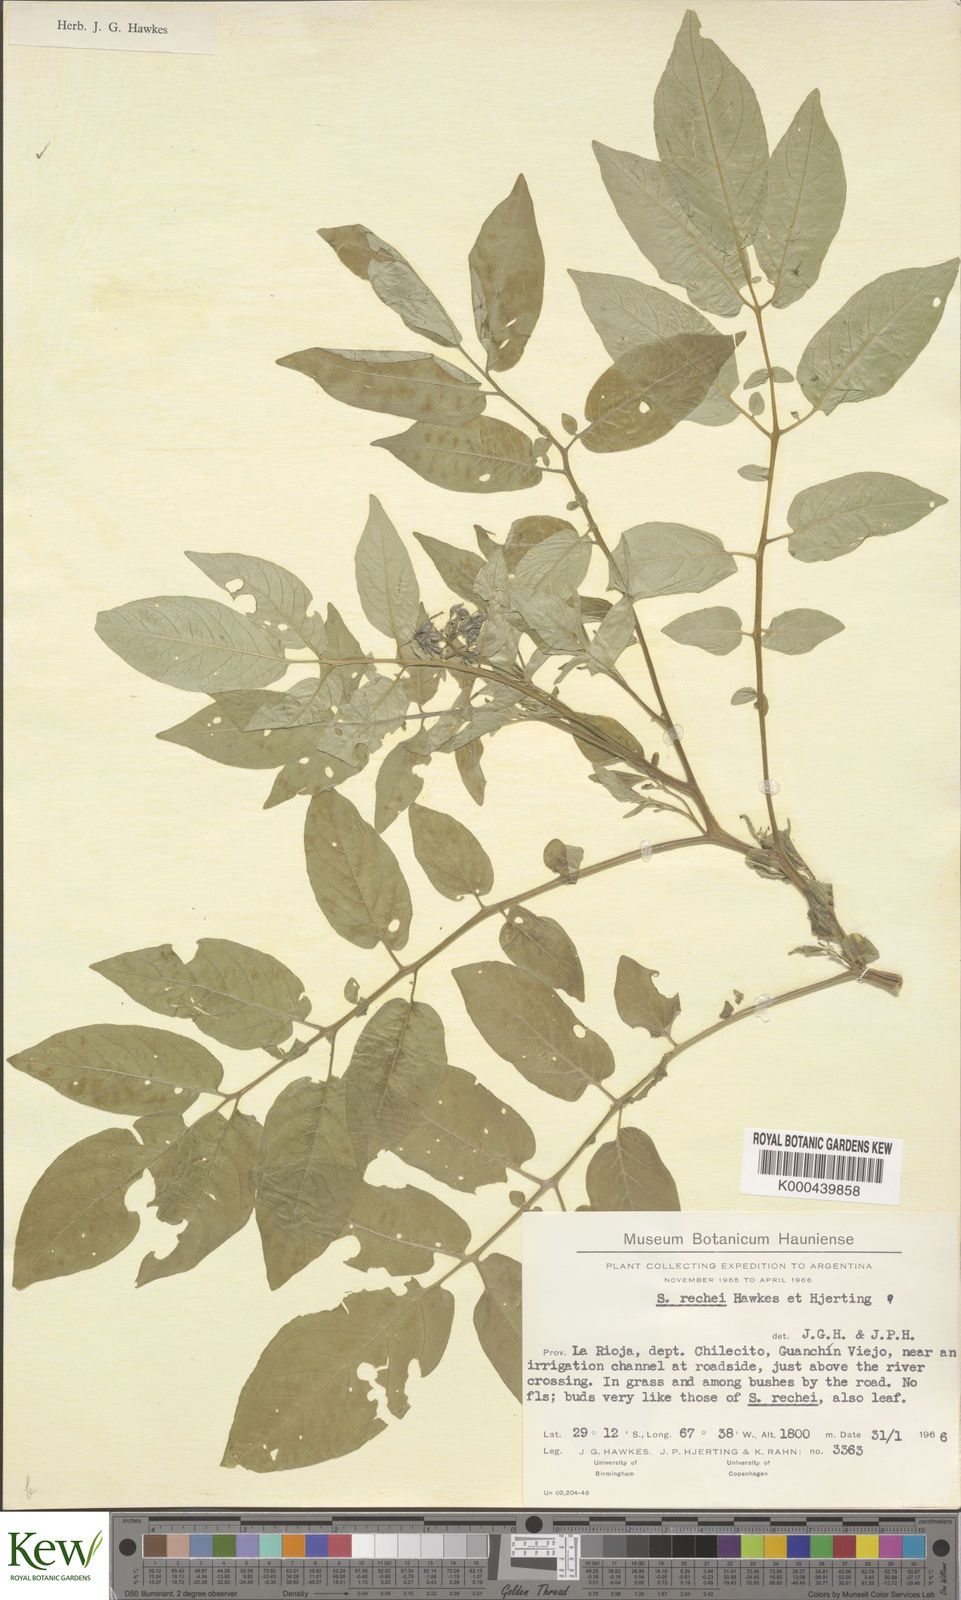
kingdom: Plantae
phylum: Tracheophyta
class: Magnoliopsida
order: Solanales
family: Solanaceae
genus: Solanum
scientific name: Solanum rechei
